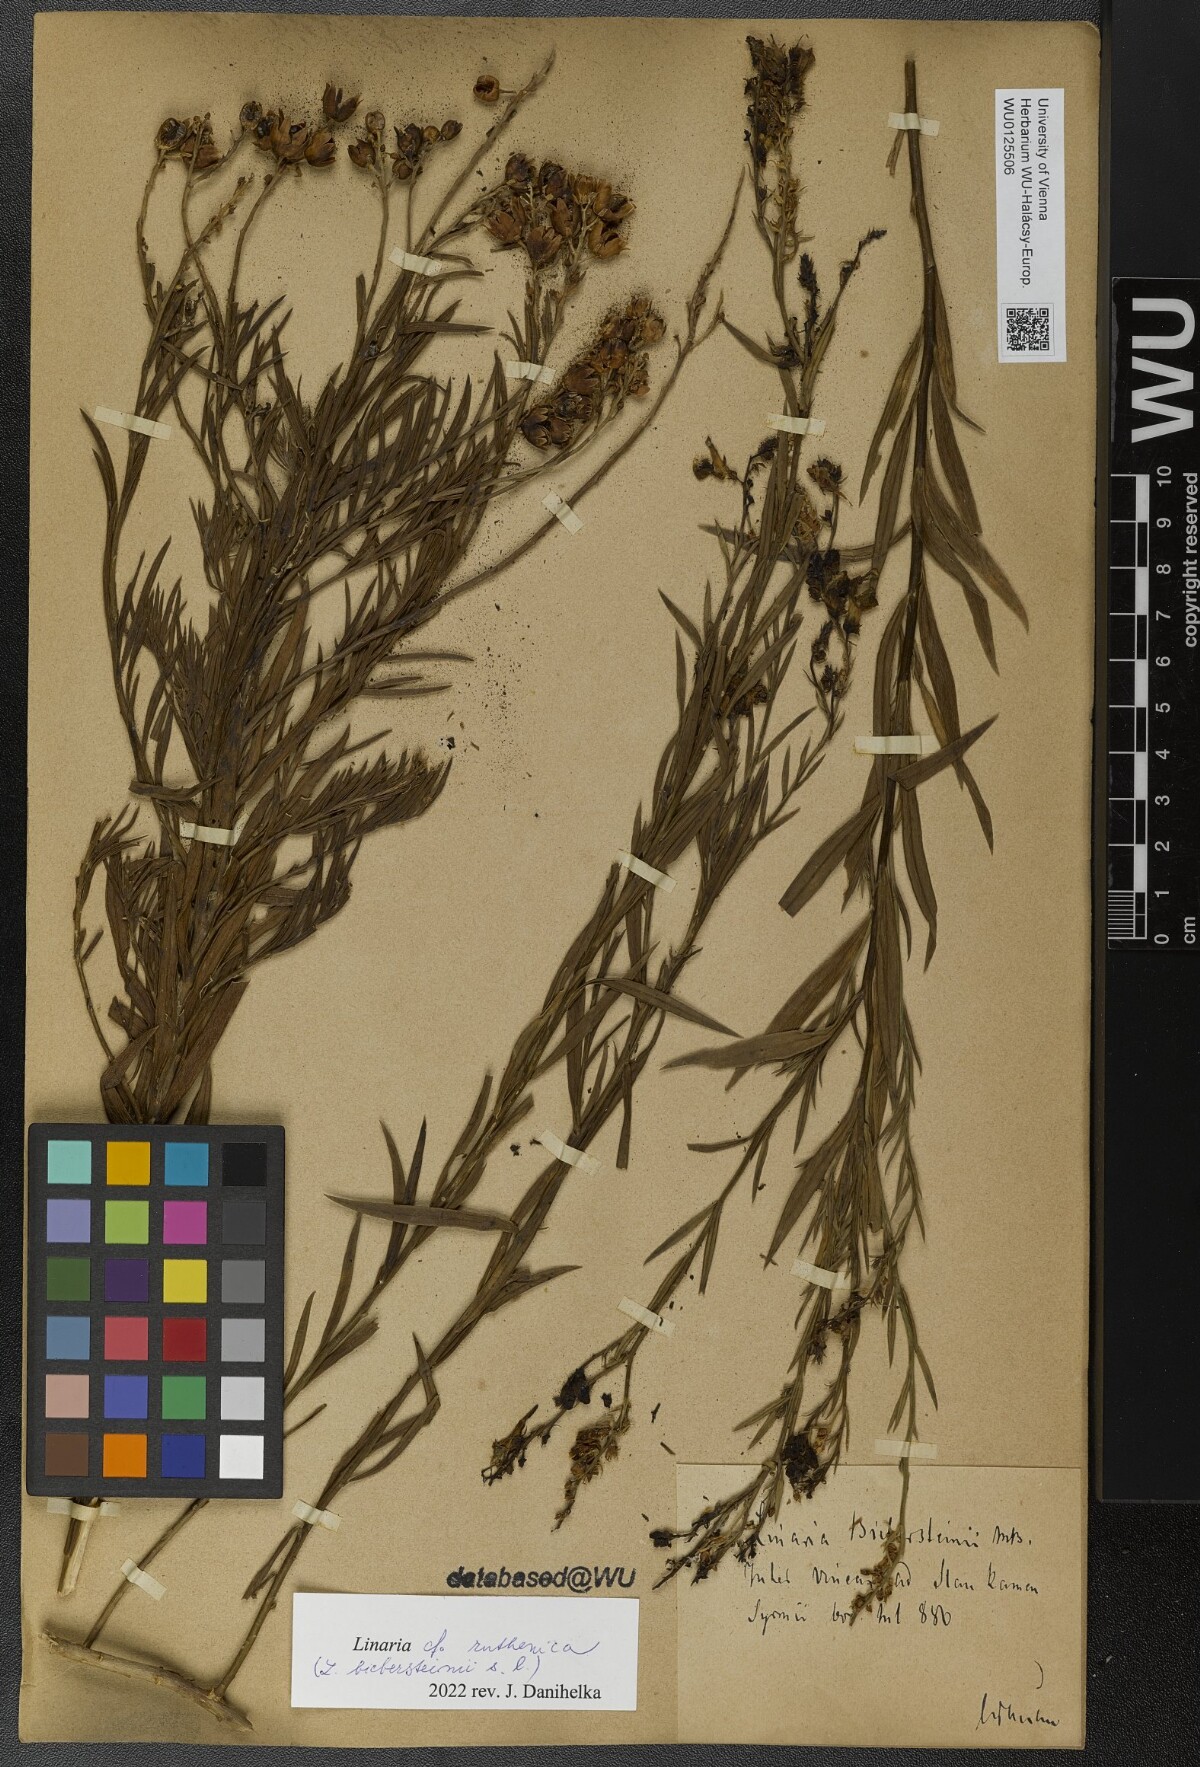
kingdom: Plantae
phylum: Tracheophyta
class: Magnoliopsida
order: Lamiales
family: Plantaginaceae
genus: Linaria
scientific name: Linaria biebersteinii
